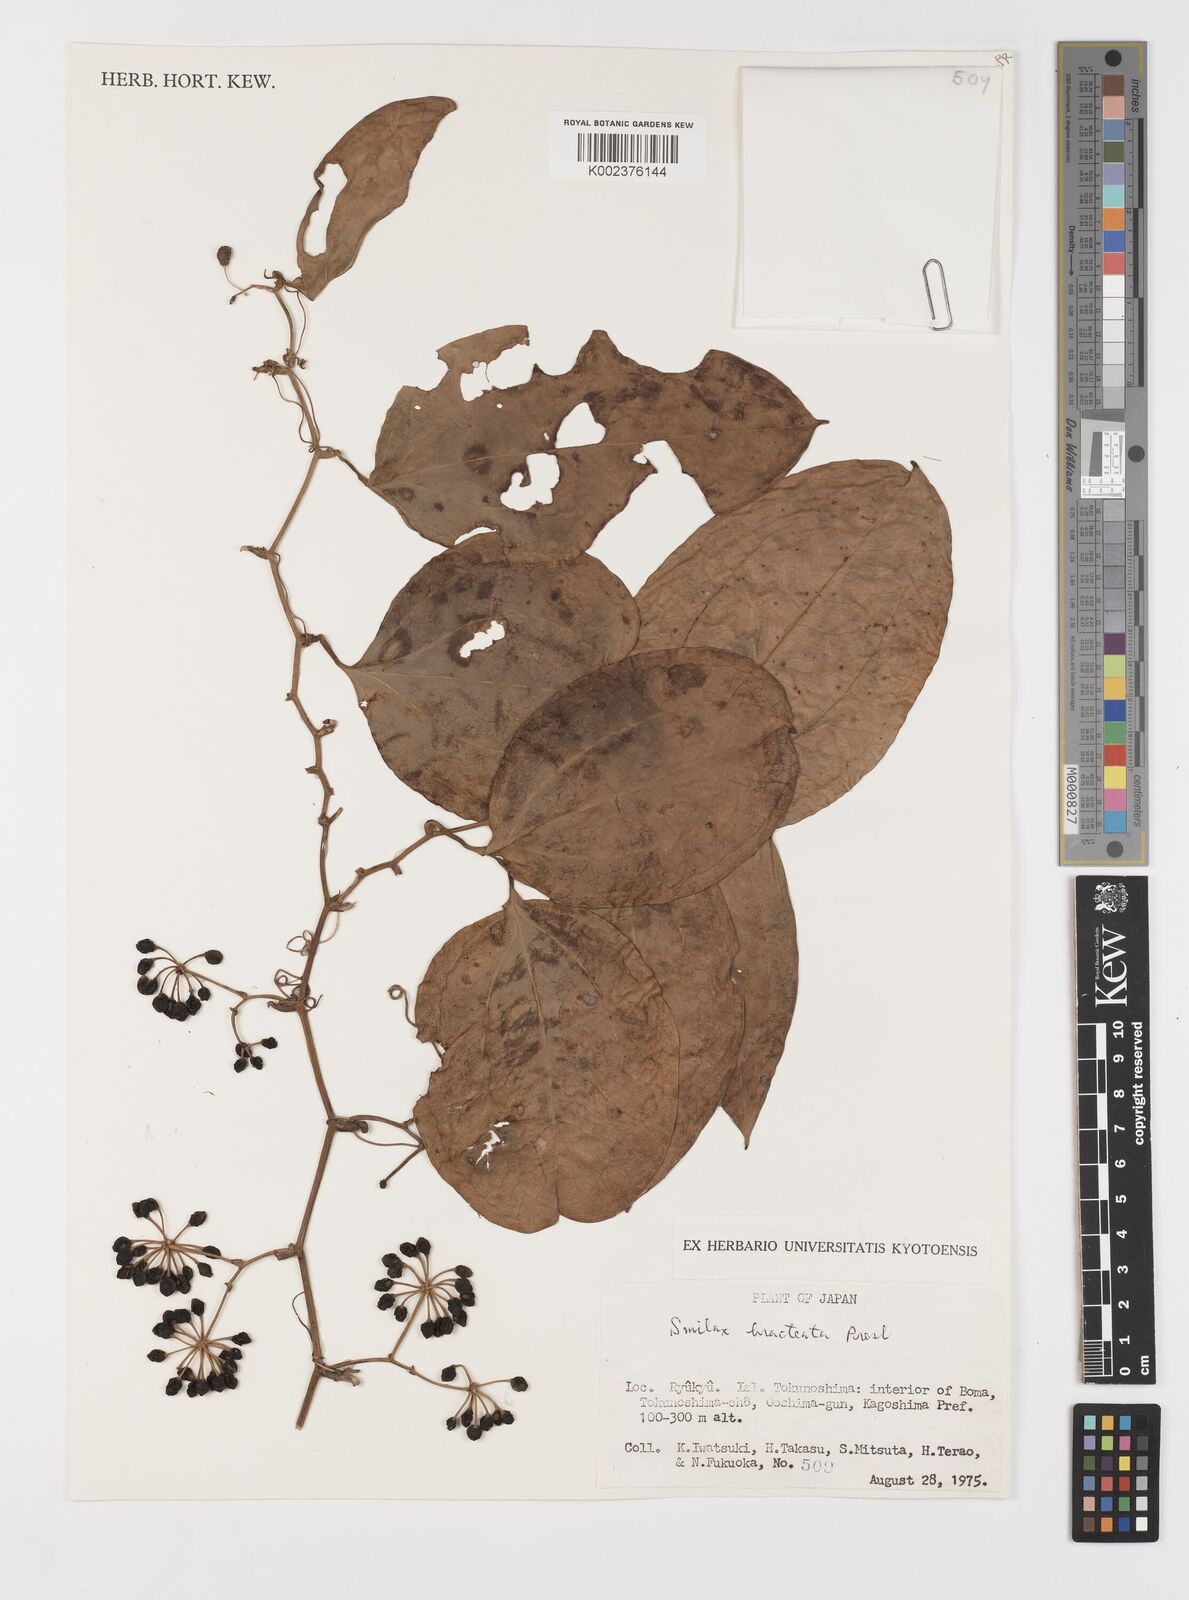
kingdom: Plantae
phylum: Tracheophyta
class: Liliopsida
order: Liliales
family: Smilacaceae
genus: Smilax
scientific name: Smilax bracteata
